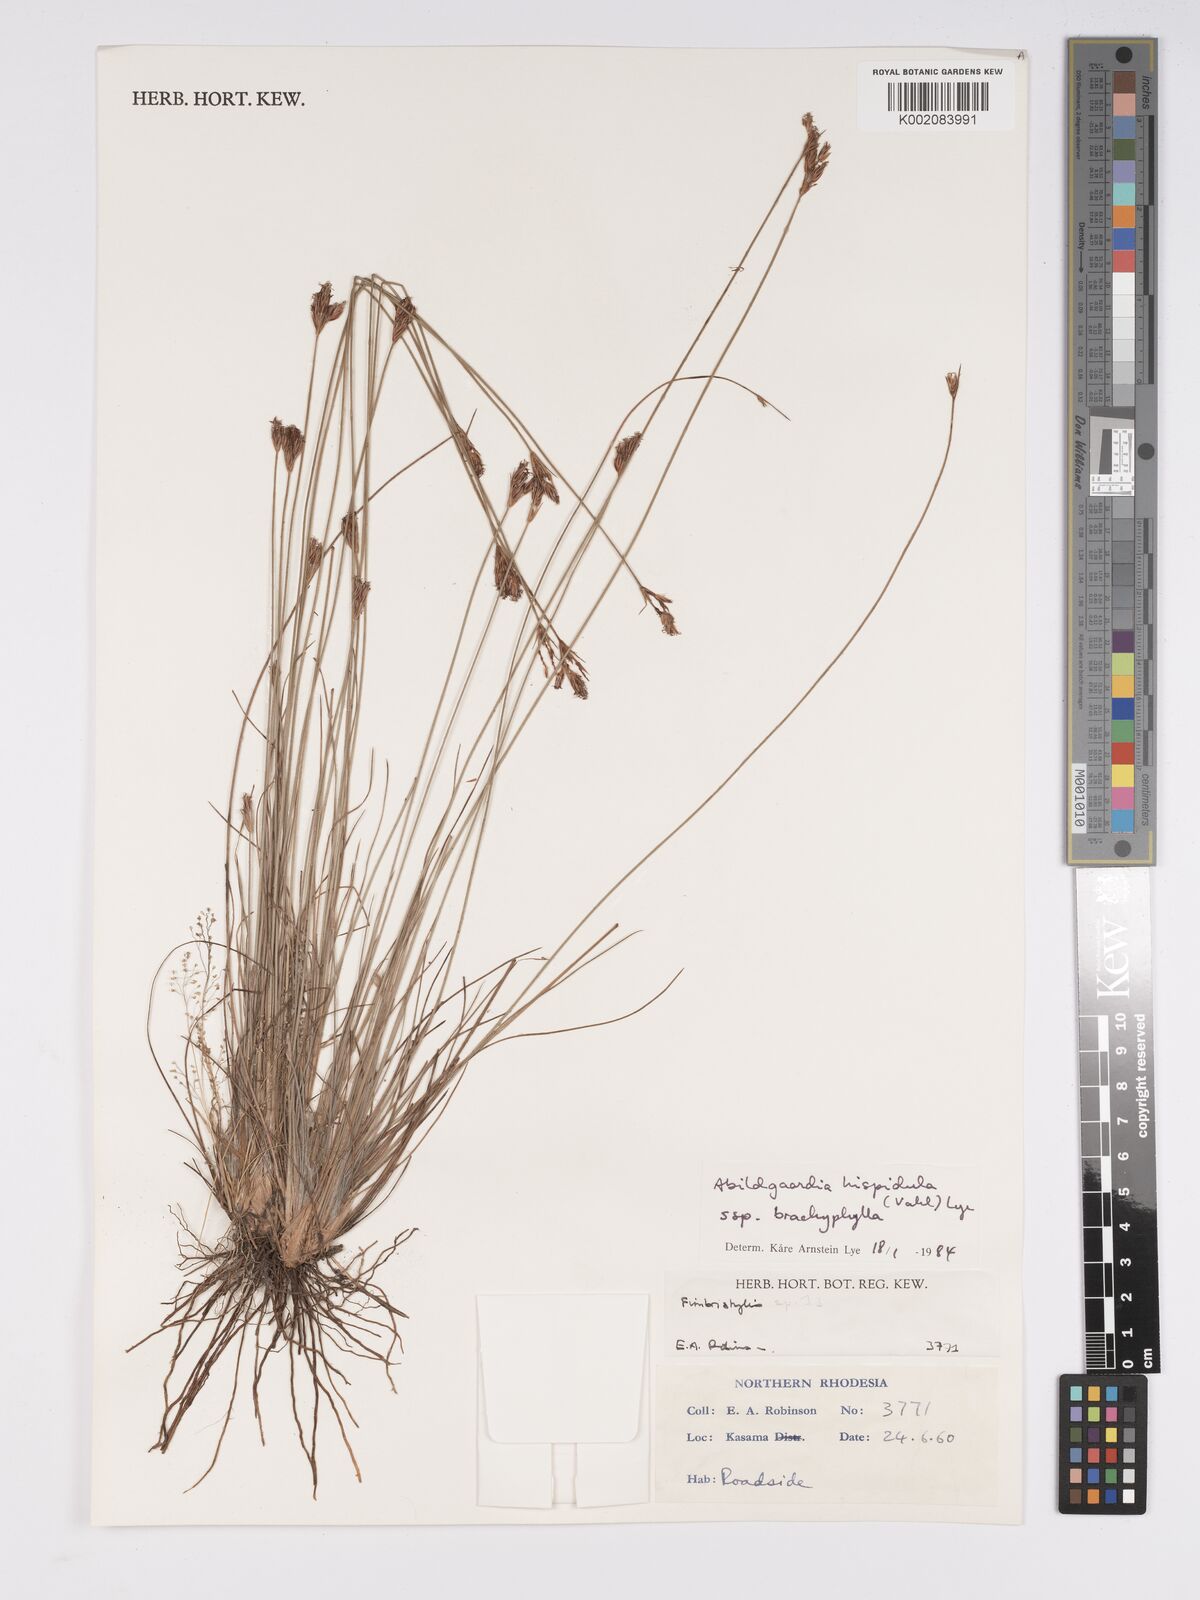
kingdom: Plantae
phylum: Tracheophyta
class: Liliopsida
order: Poales
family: Cyperaceae
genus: Bulbostylis
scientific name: Bulbostylis hispidula
